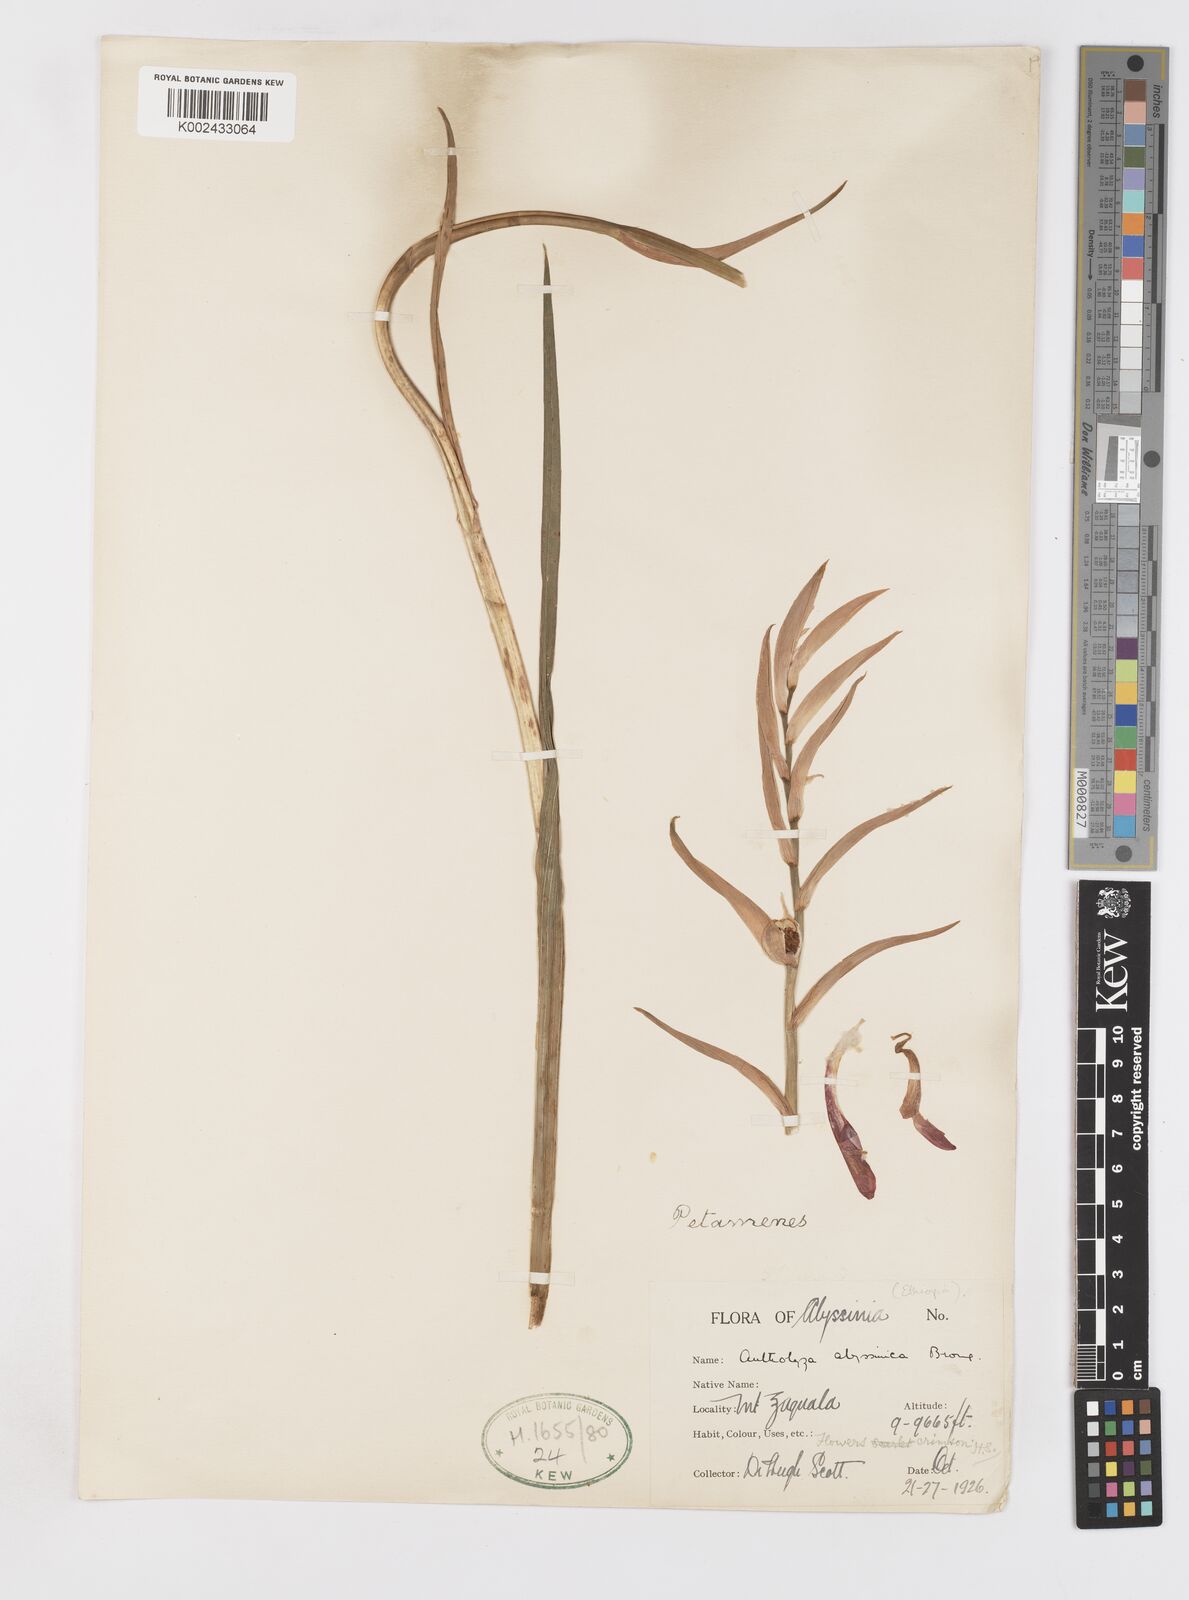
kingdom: Plantae
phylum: Tracheophyta
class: Liliopsida
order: Asparagales
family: Iridaceae
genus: Gladiolus
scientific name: Gladiolus abyssinicus
